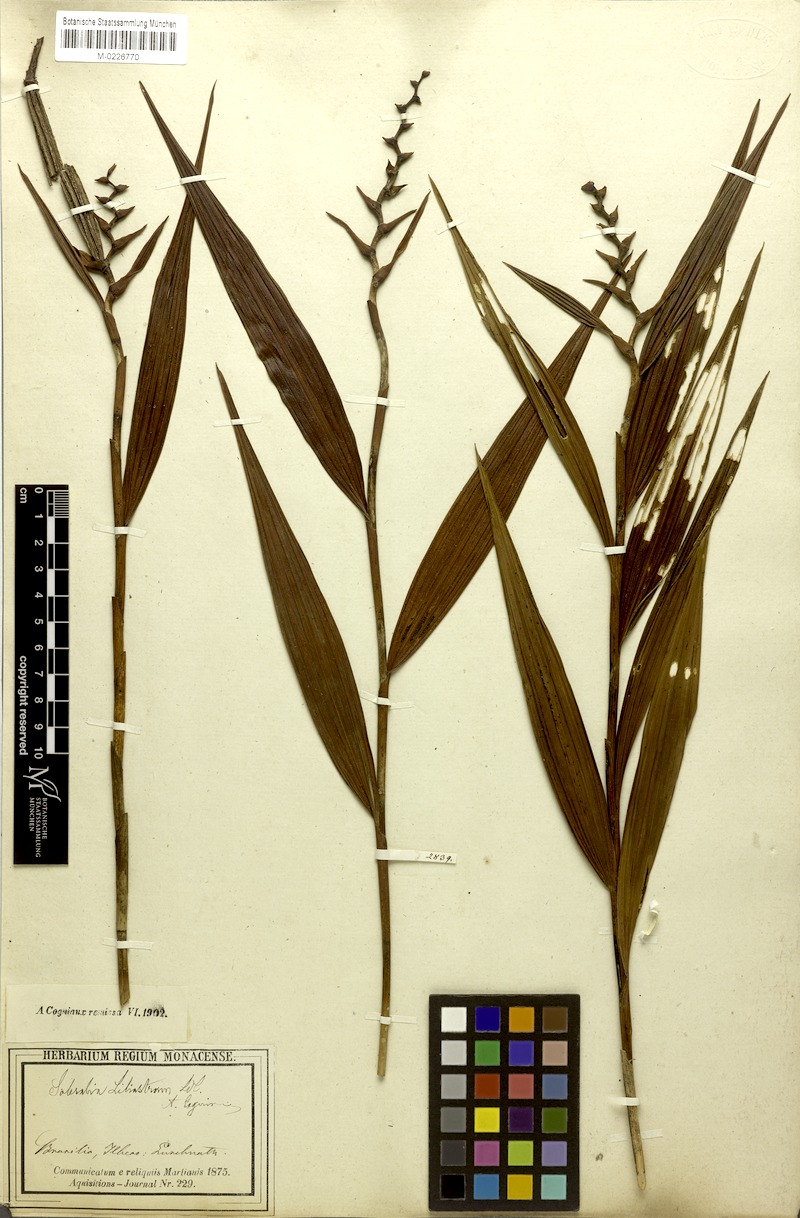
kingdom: Plantae
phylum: Tracheophyta
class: Liliopsida
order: Asparagales
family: Orchidaceae
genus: Sobralia
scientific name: Sobralia liliastrum
